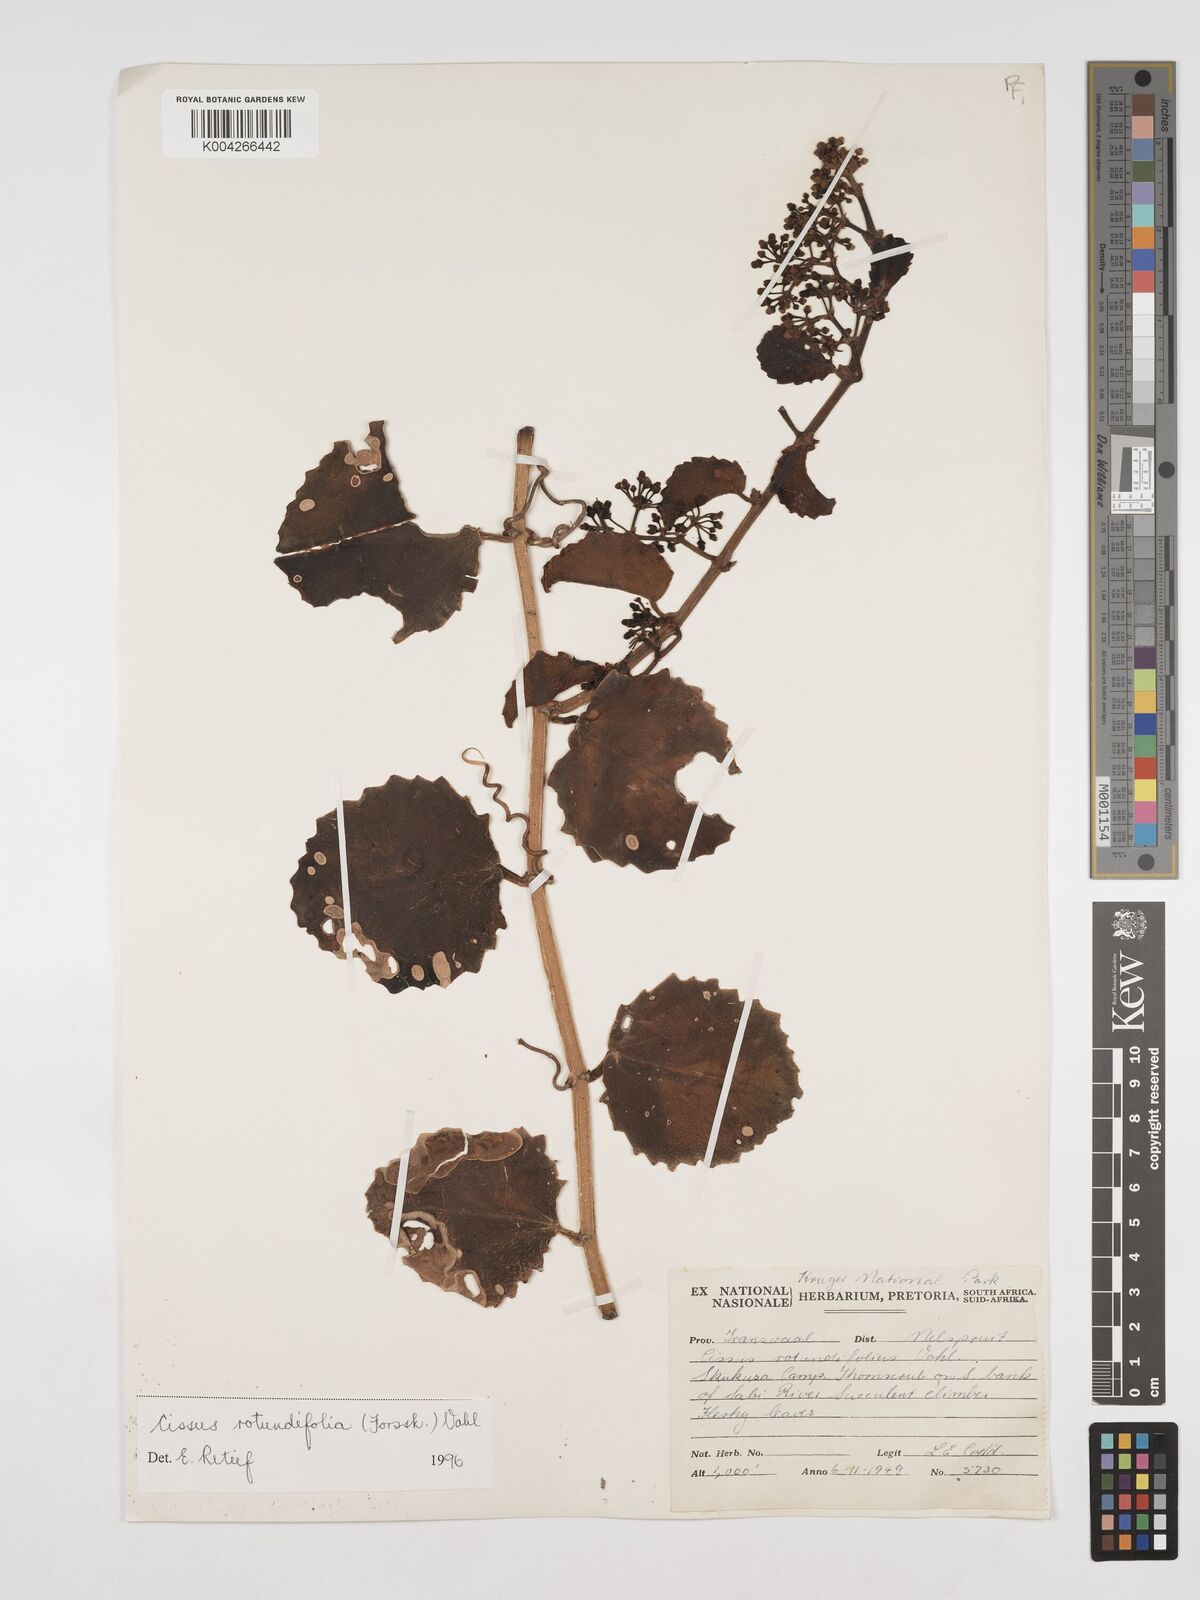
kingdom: Plantae
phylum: Tracheophyta
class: Magnoliopsida
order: Vitales
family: Vitaceae
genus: Cissus
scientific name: Cissus
